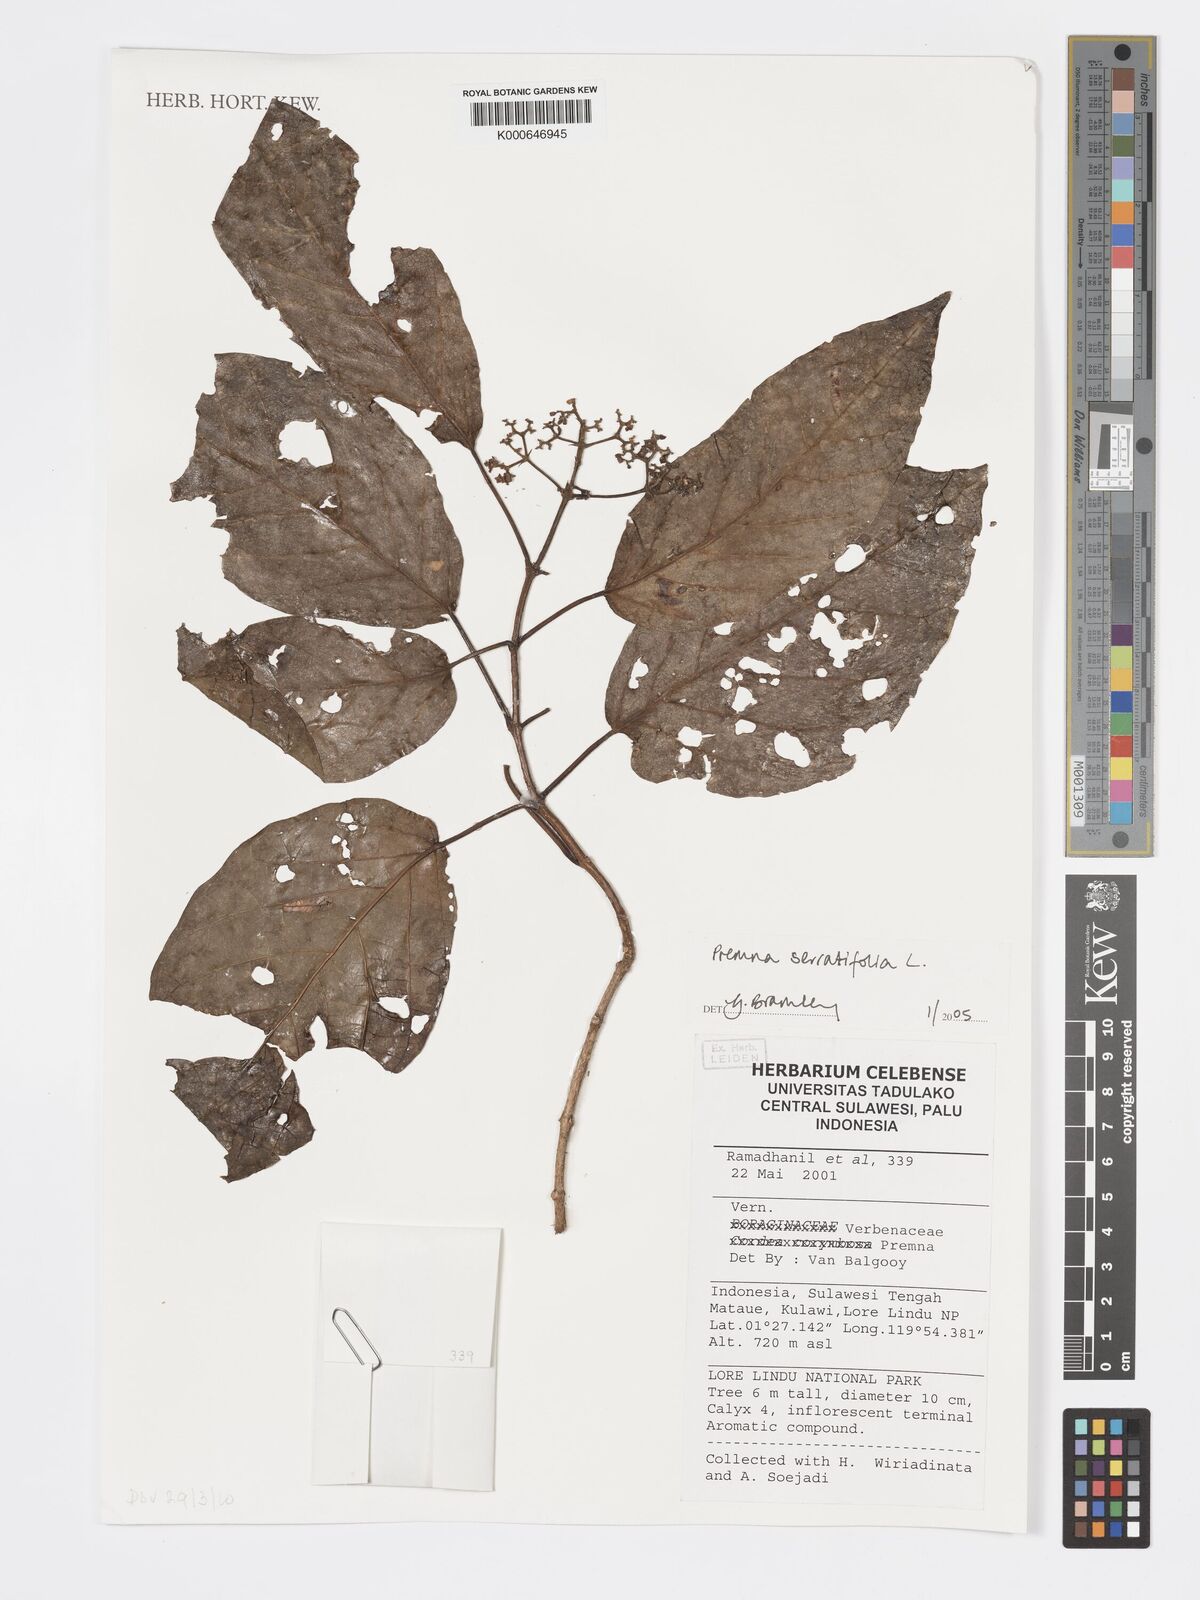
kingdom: Plantae
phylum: Tracheophyta
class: Magnoliopsida
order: Lamiales
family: Lamiaceae
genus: Premna
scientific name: Premna serratifolia
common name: Bastard guelder
